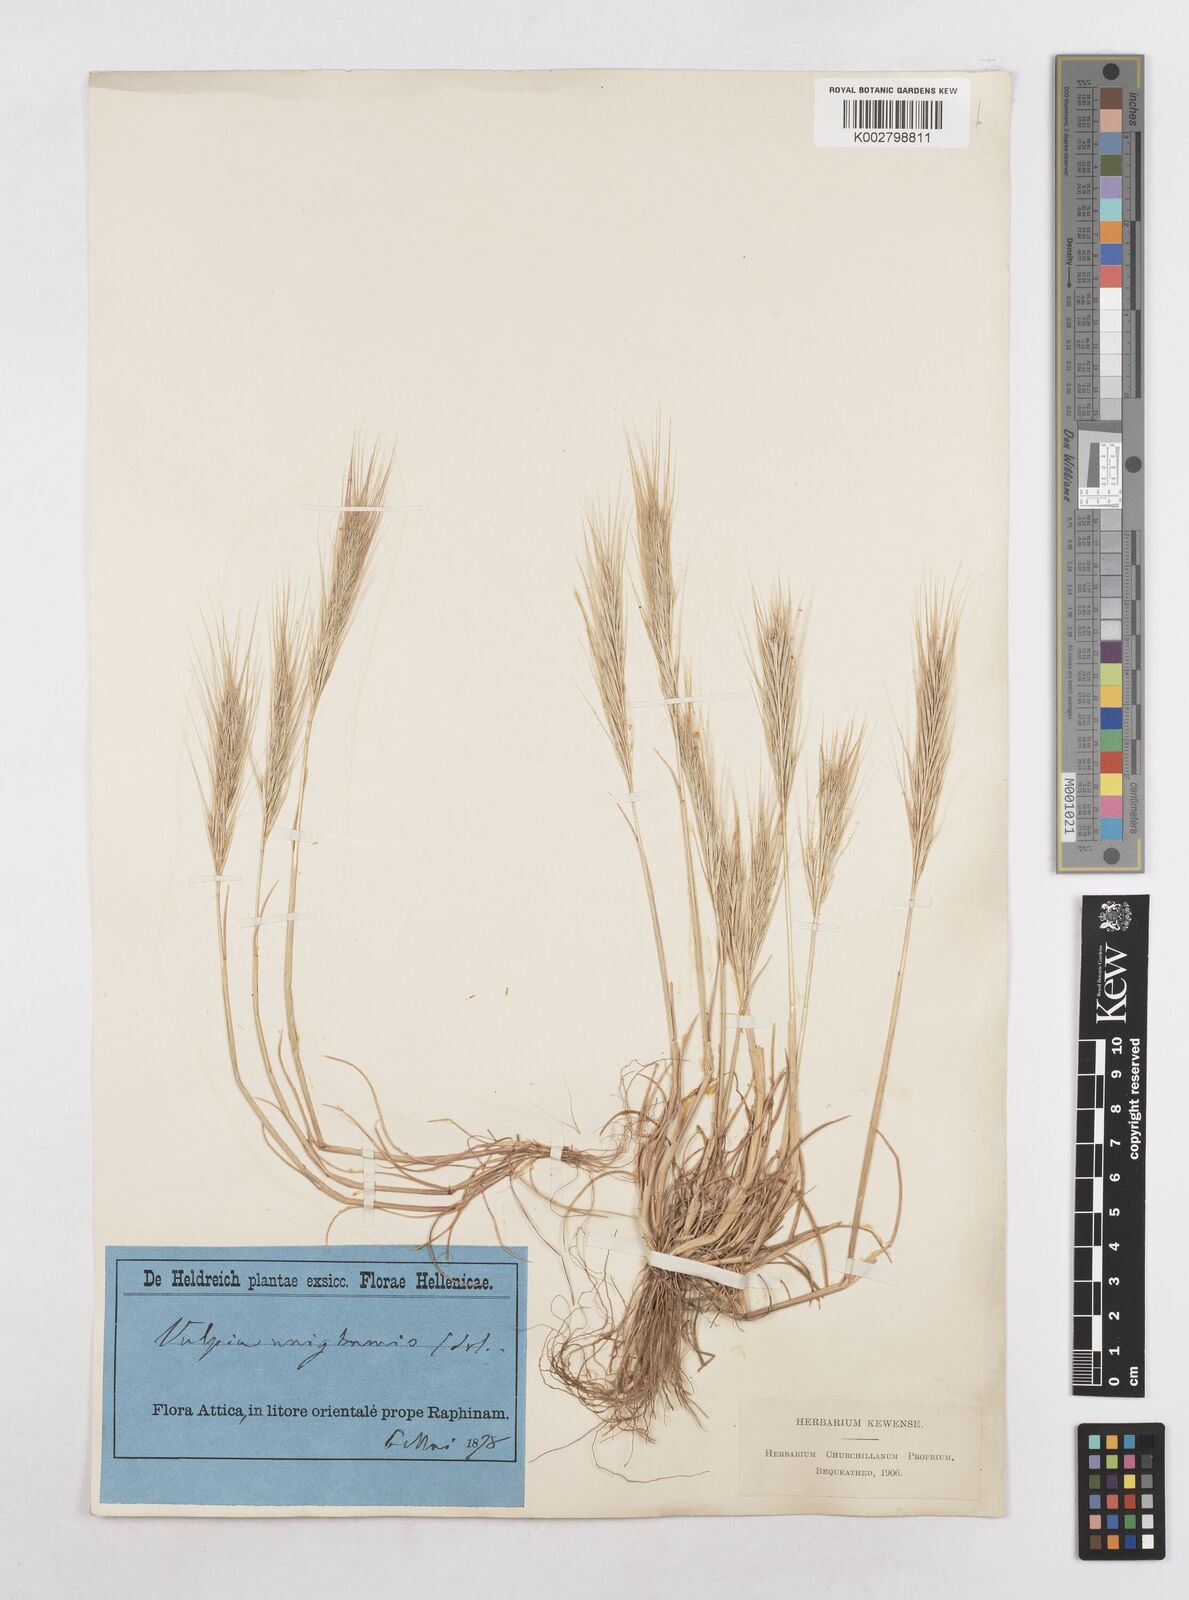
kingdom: Plantae
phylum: Tracheophyta
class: Liliopsida
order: Poales
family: Poaceae
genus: Festuca
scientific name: Festuca fasciculata
